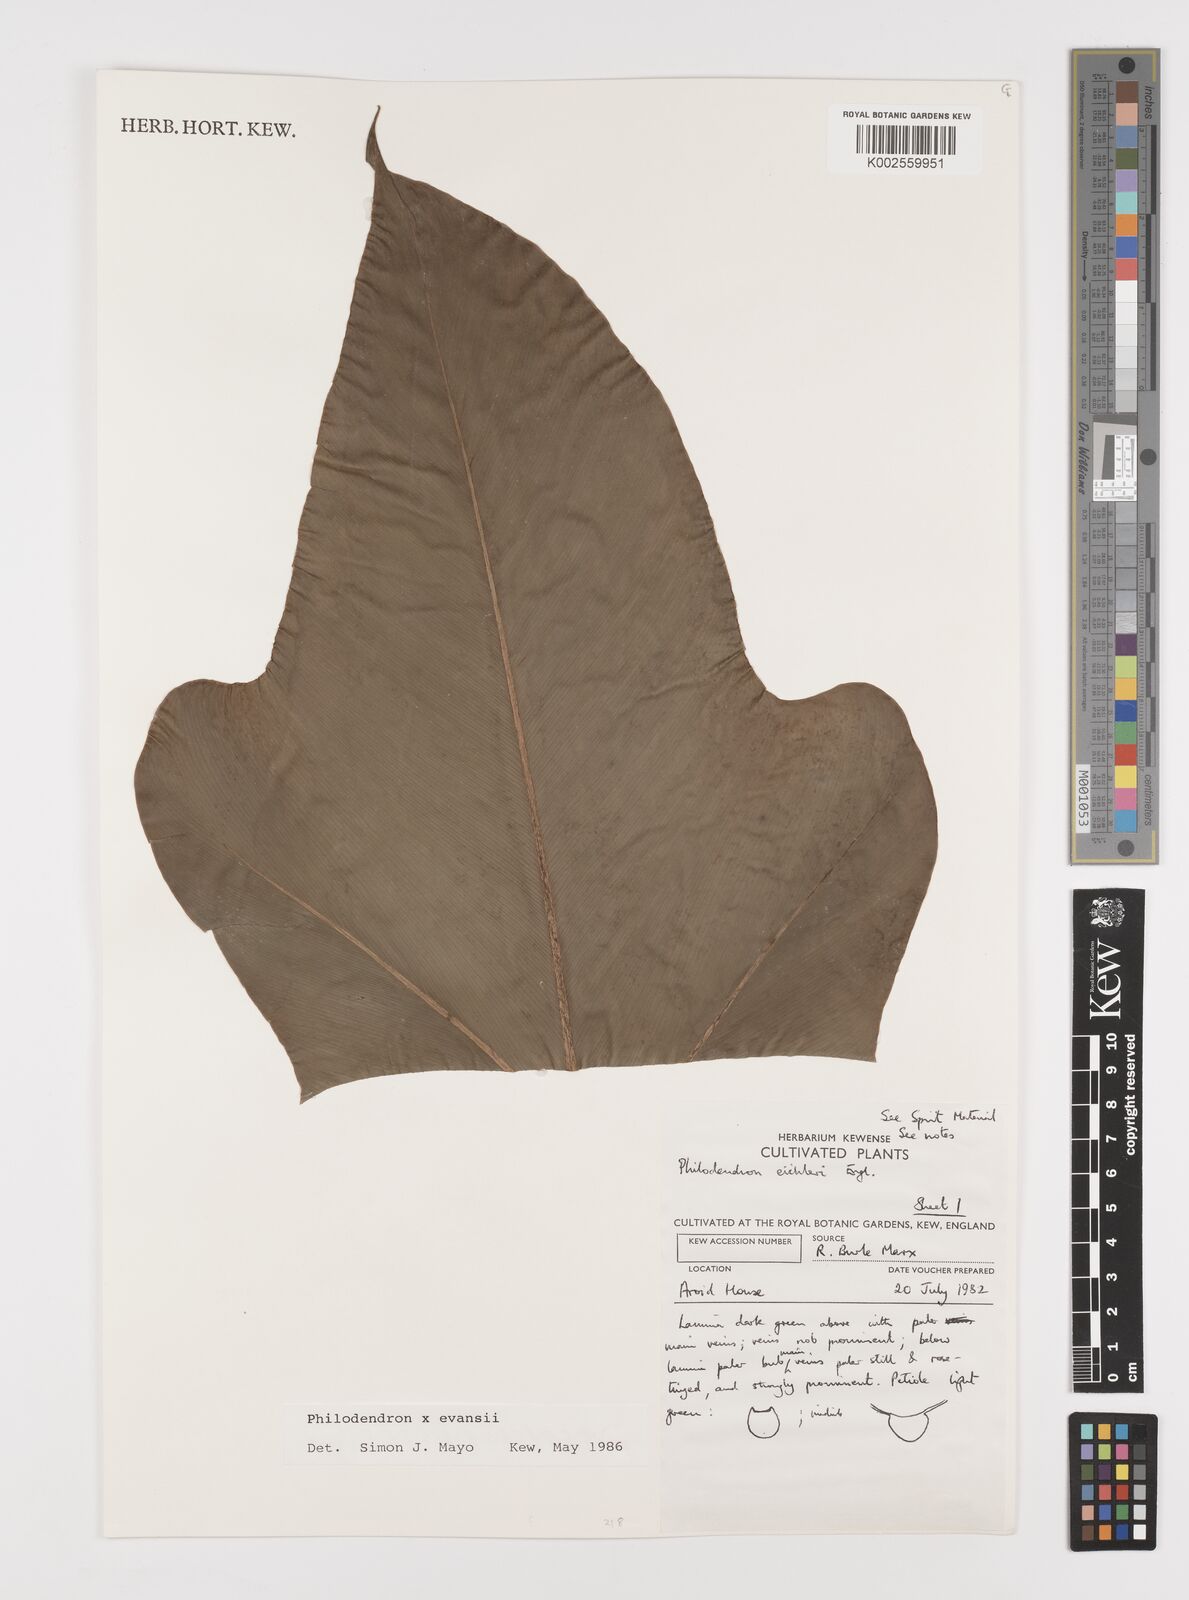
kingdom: Plantae
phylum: Tracheophyta
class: Liliopsida
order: Alismatales
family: Araceae
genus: Philodendron
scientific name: Philodendron
